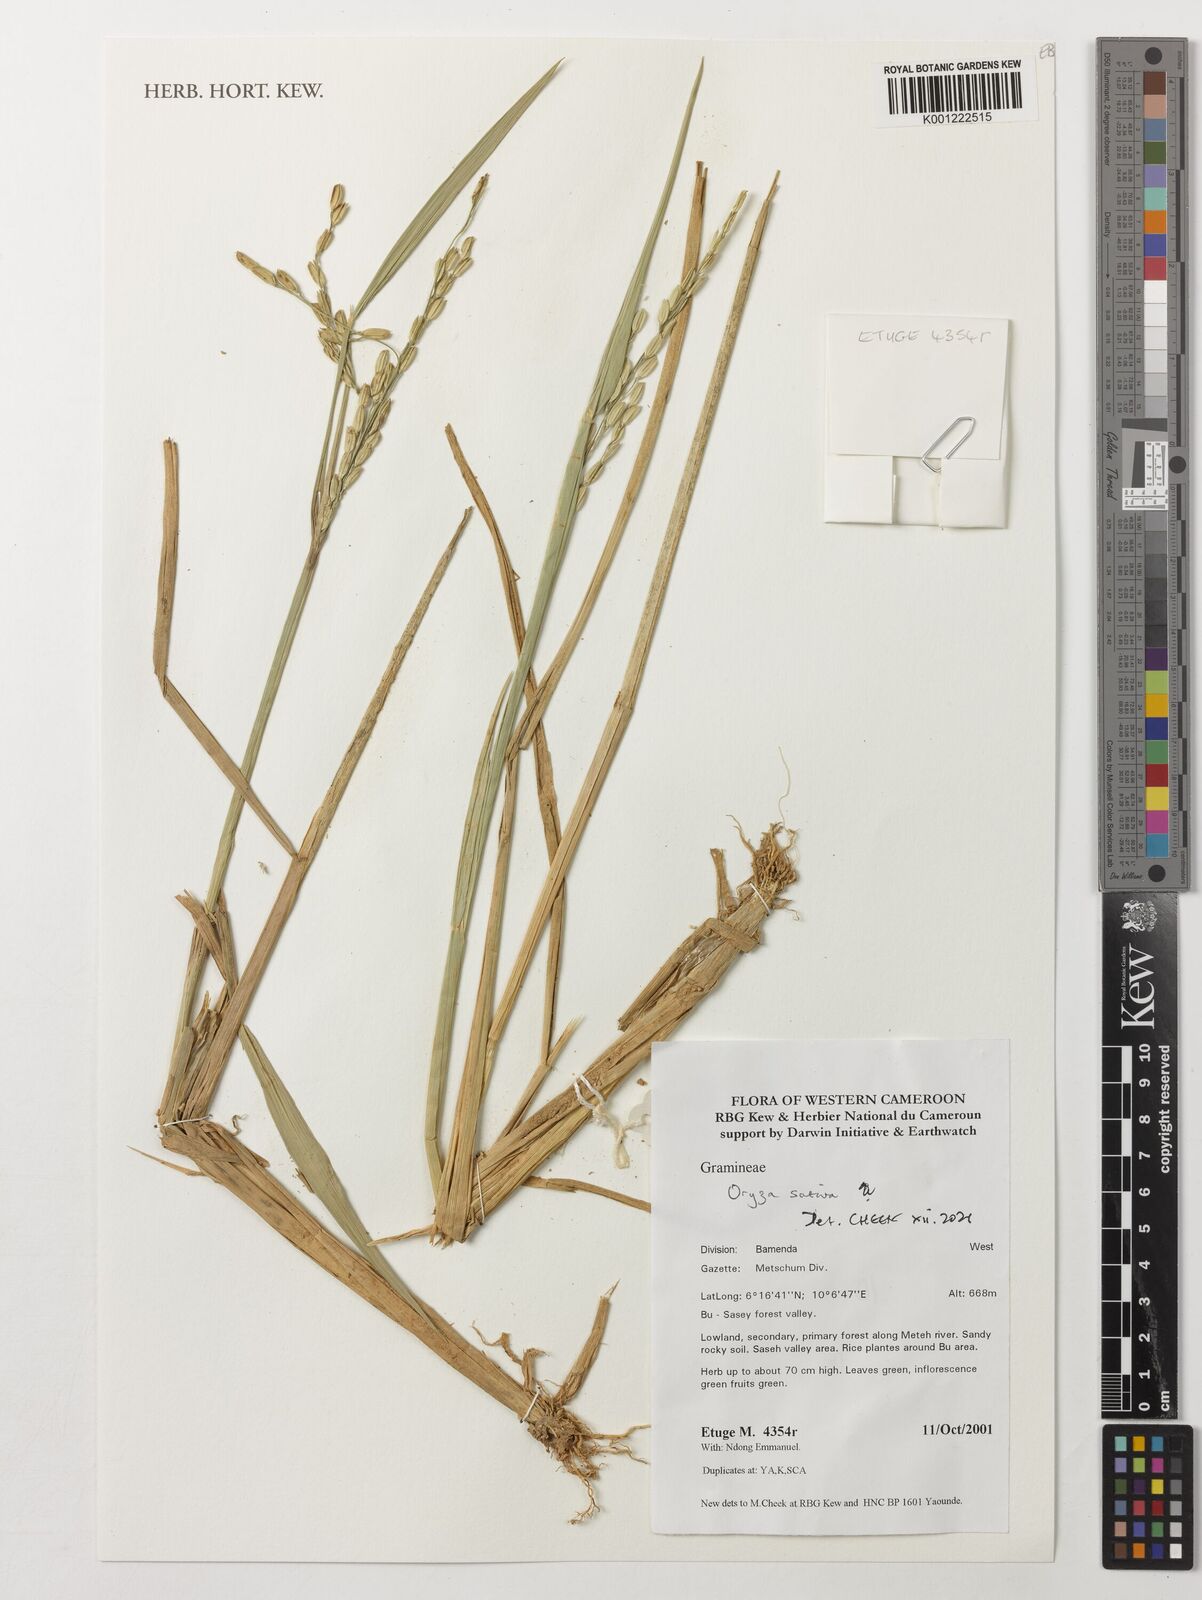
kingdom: Plantae
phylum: Tracheophyta
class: Liliopsida
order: Poales
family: Poaceae
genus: Oryza
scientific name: Oryza sativa
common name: Rice
